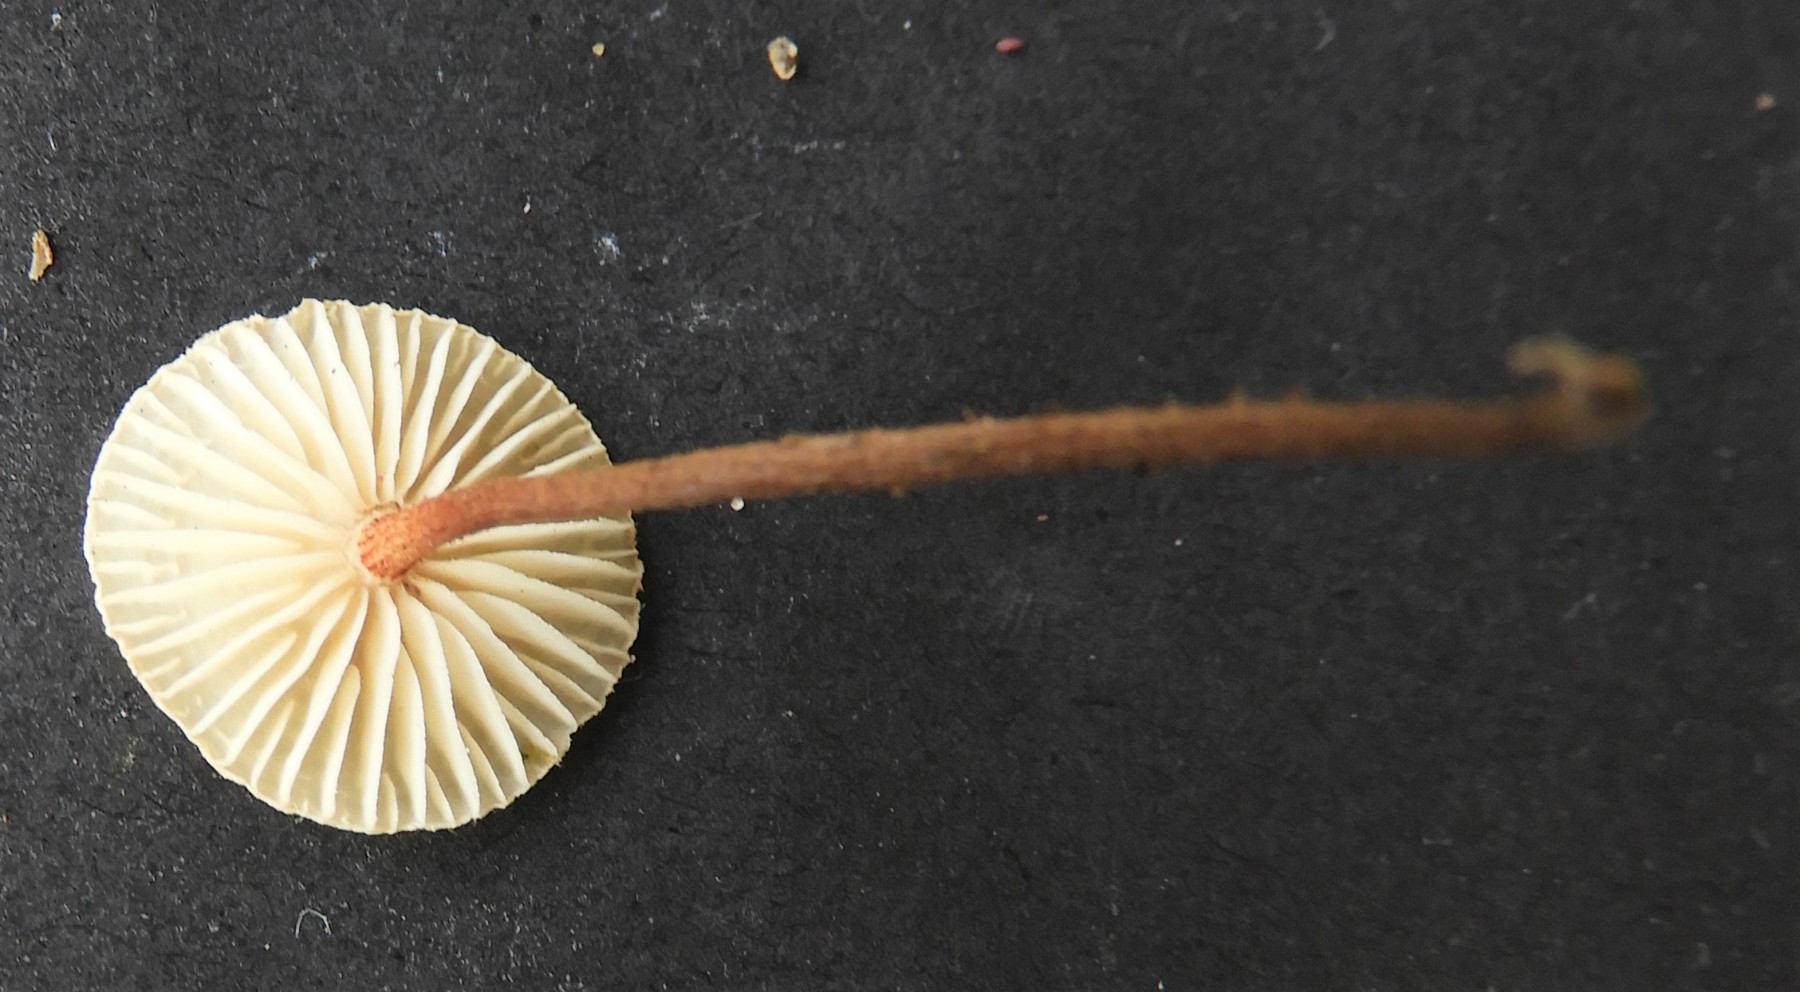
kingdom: Fungi
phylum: Basidiomycota
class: Agaricomycetes
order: Agaricales
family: Marasmiaceae
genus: Crinipellis
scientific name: Crinipellis scabella
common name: børstefod
